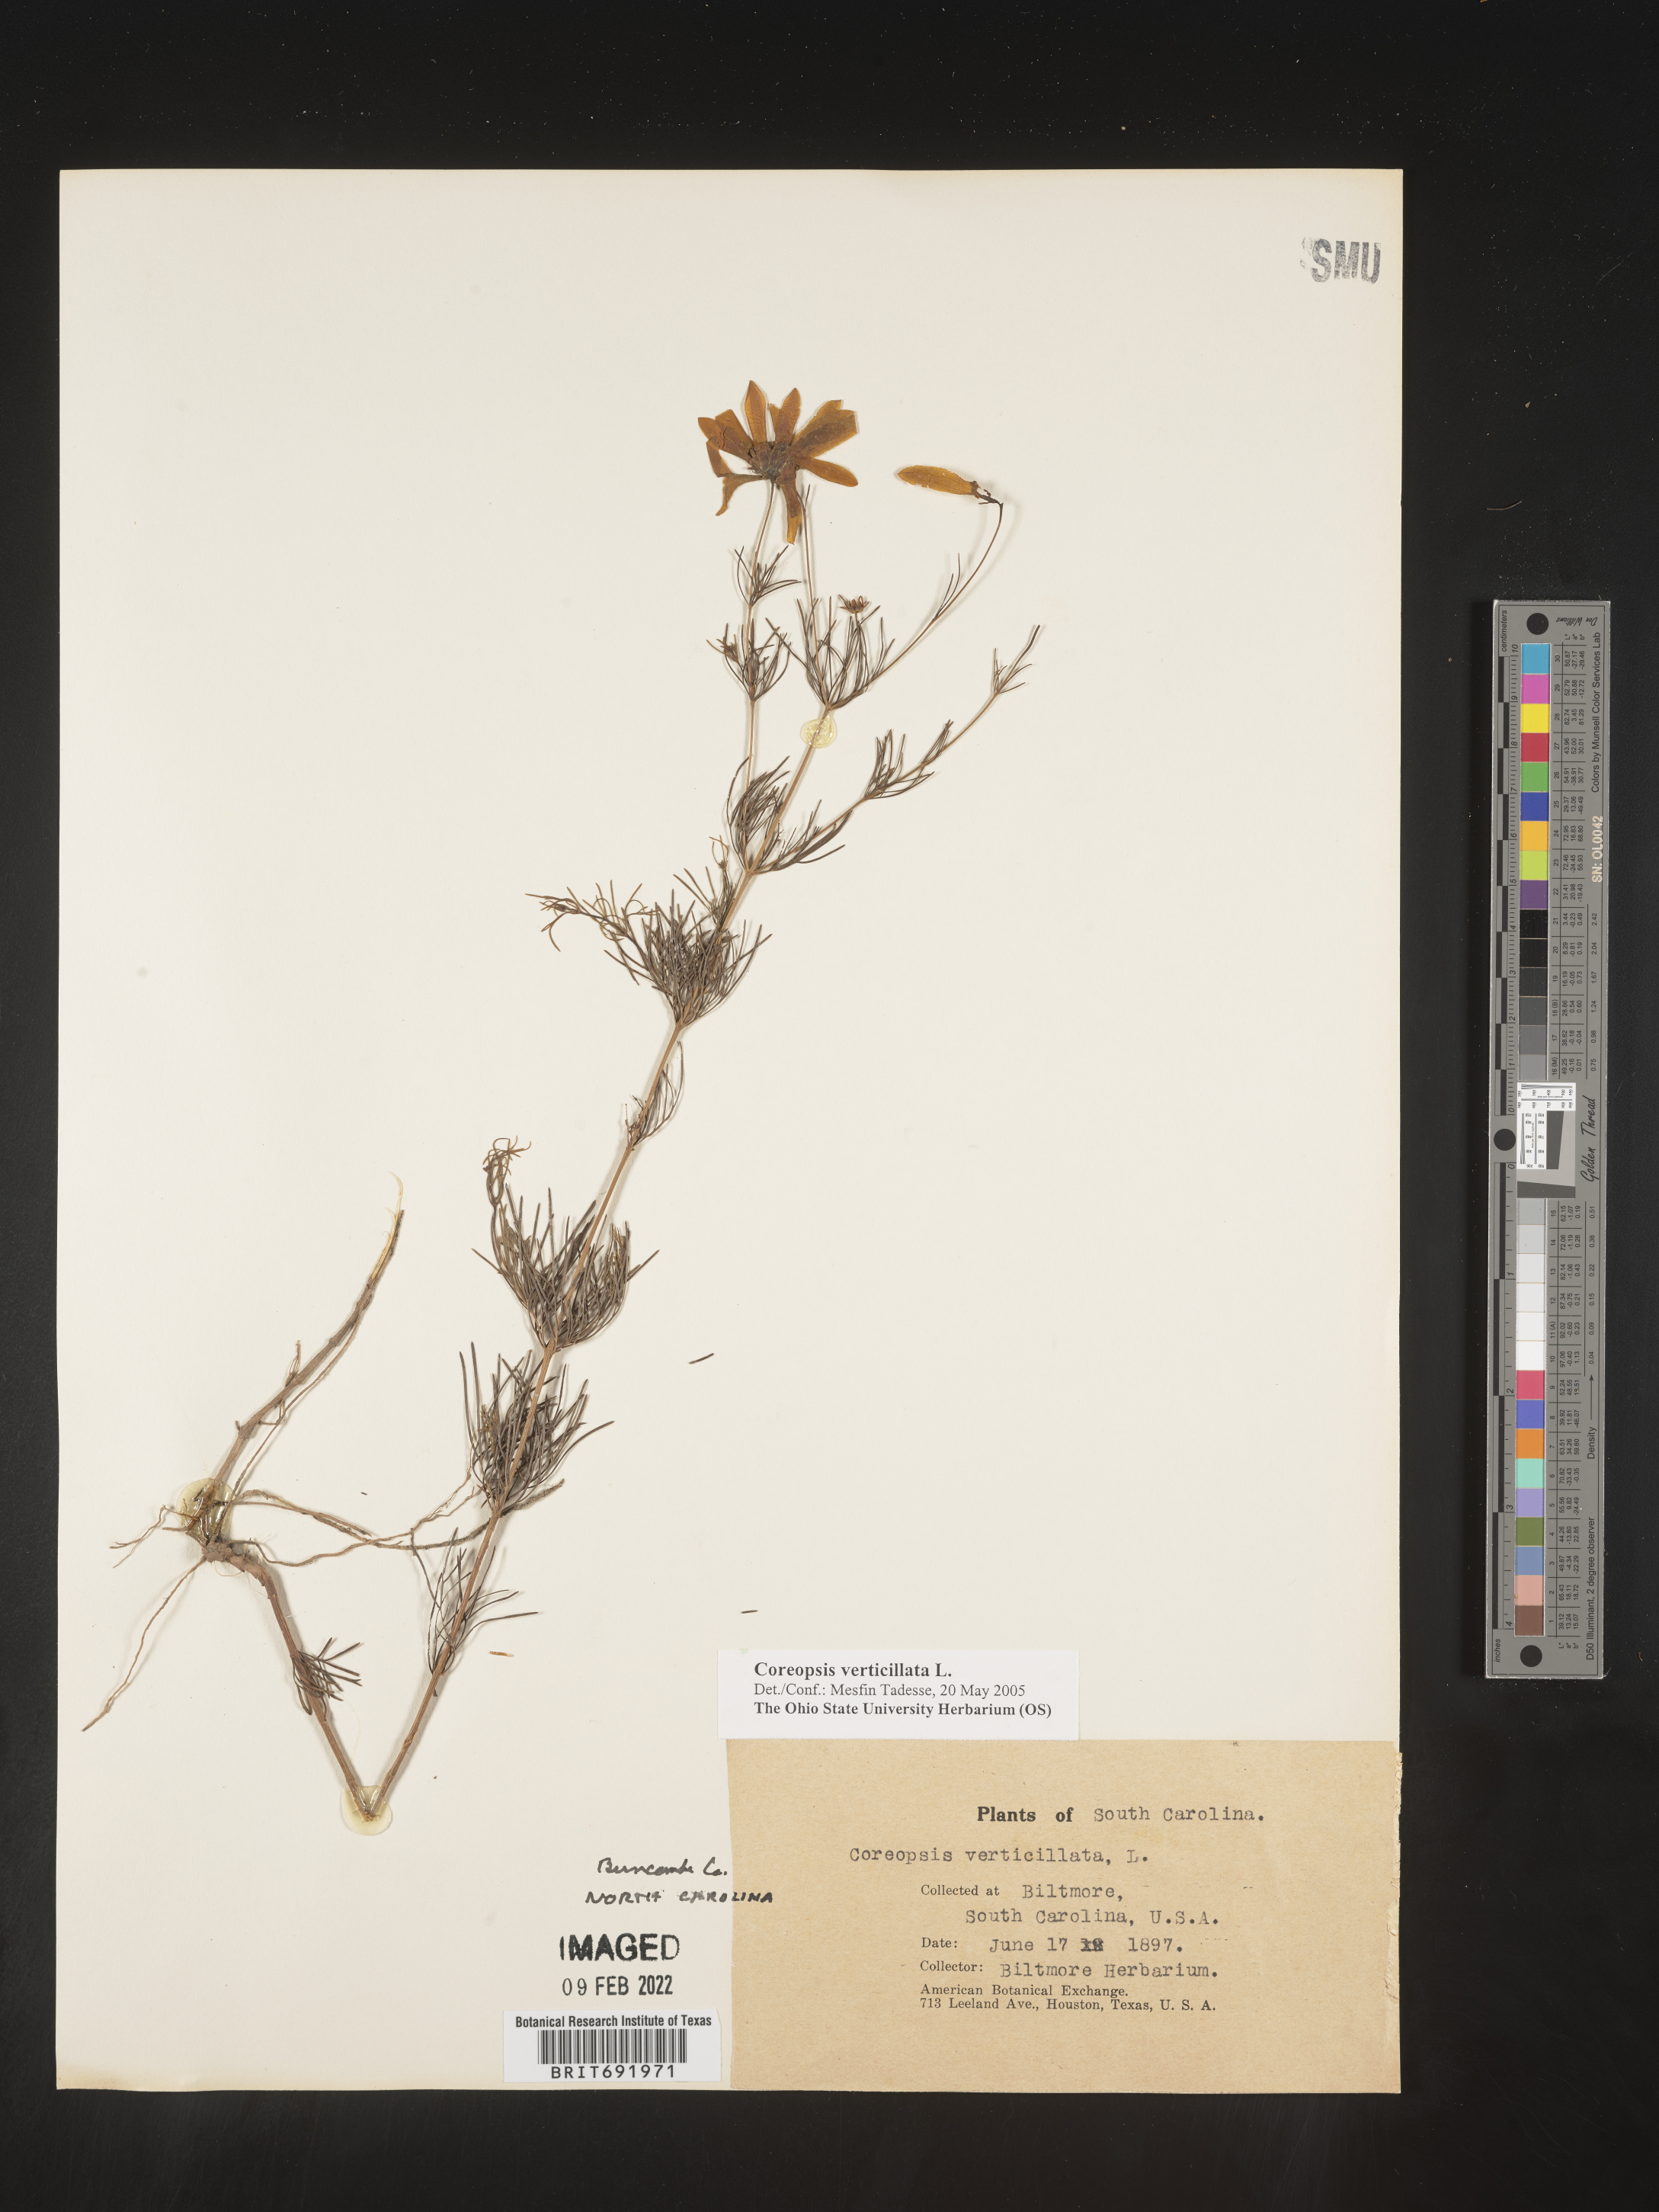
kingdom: Plantae
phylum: Tracheophyta
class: Magnoliopsida
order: Asterales
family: Asteraceae
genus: Coreopsis
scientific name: Coreopsis verticillata
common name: Whorled tickseed
